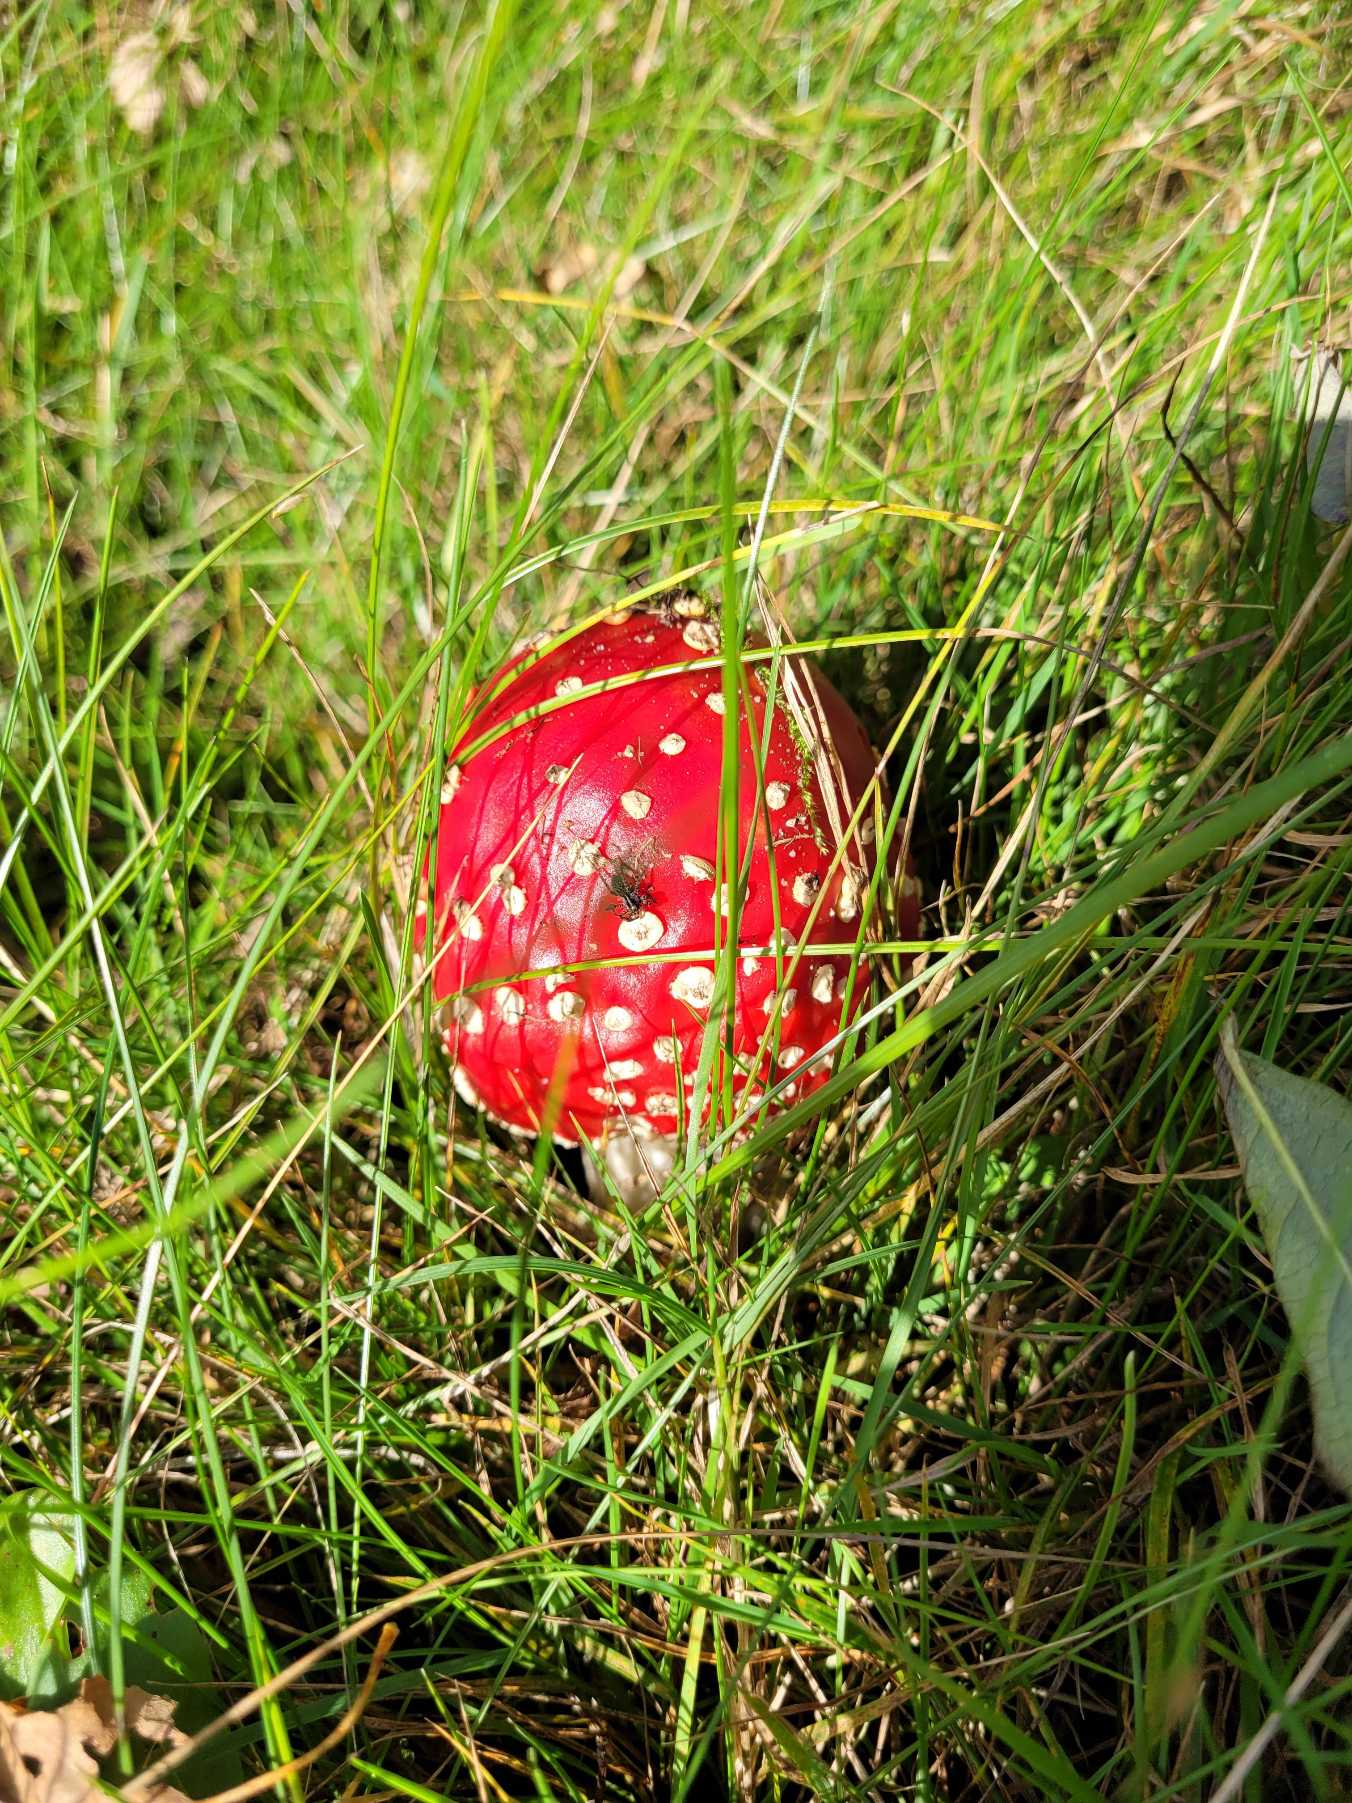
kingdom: Fungi
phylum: Basidiomycota
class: Agaricomycetes
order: Agaricales
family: Amanitaceae
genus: Amanita
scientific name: Amanita muscaria
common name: Rød fluesvamp
